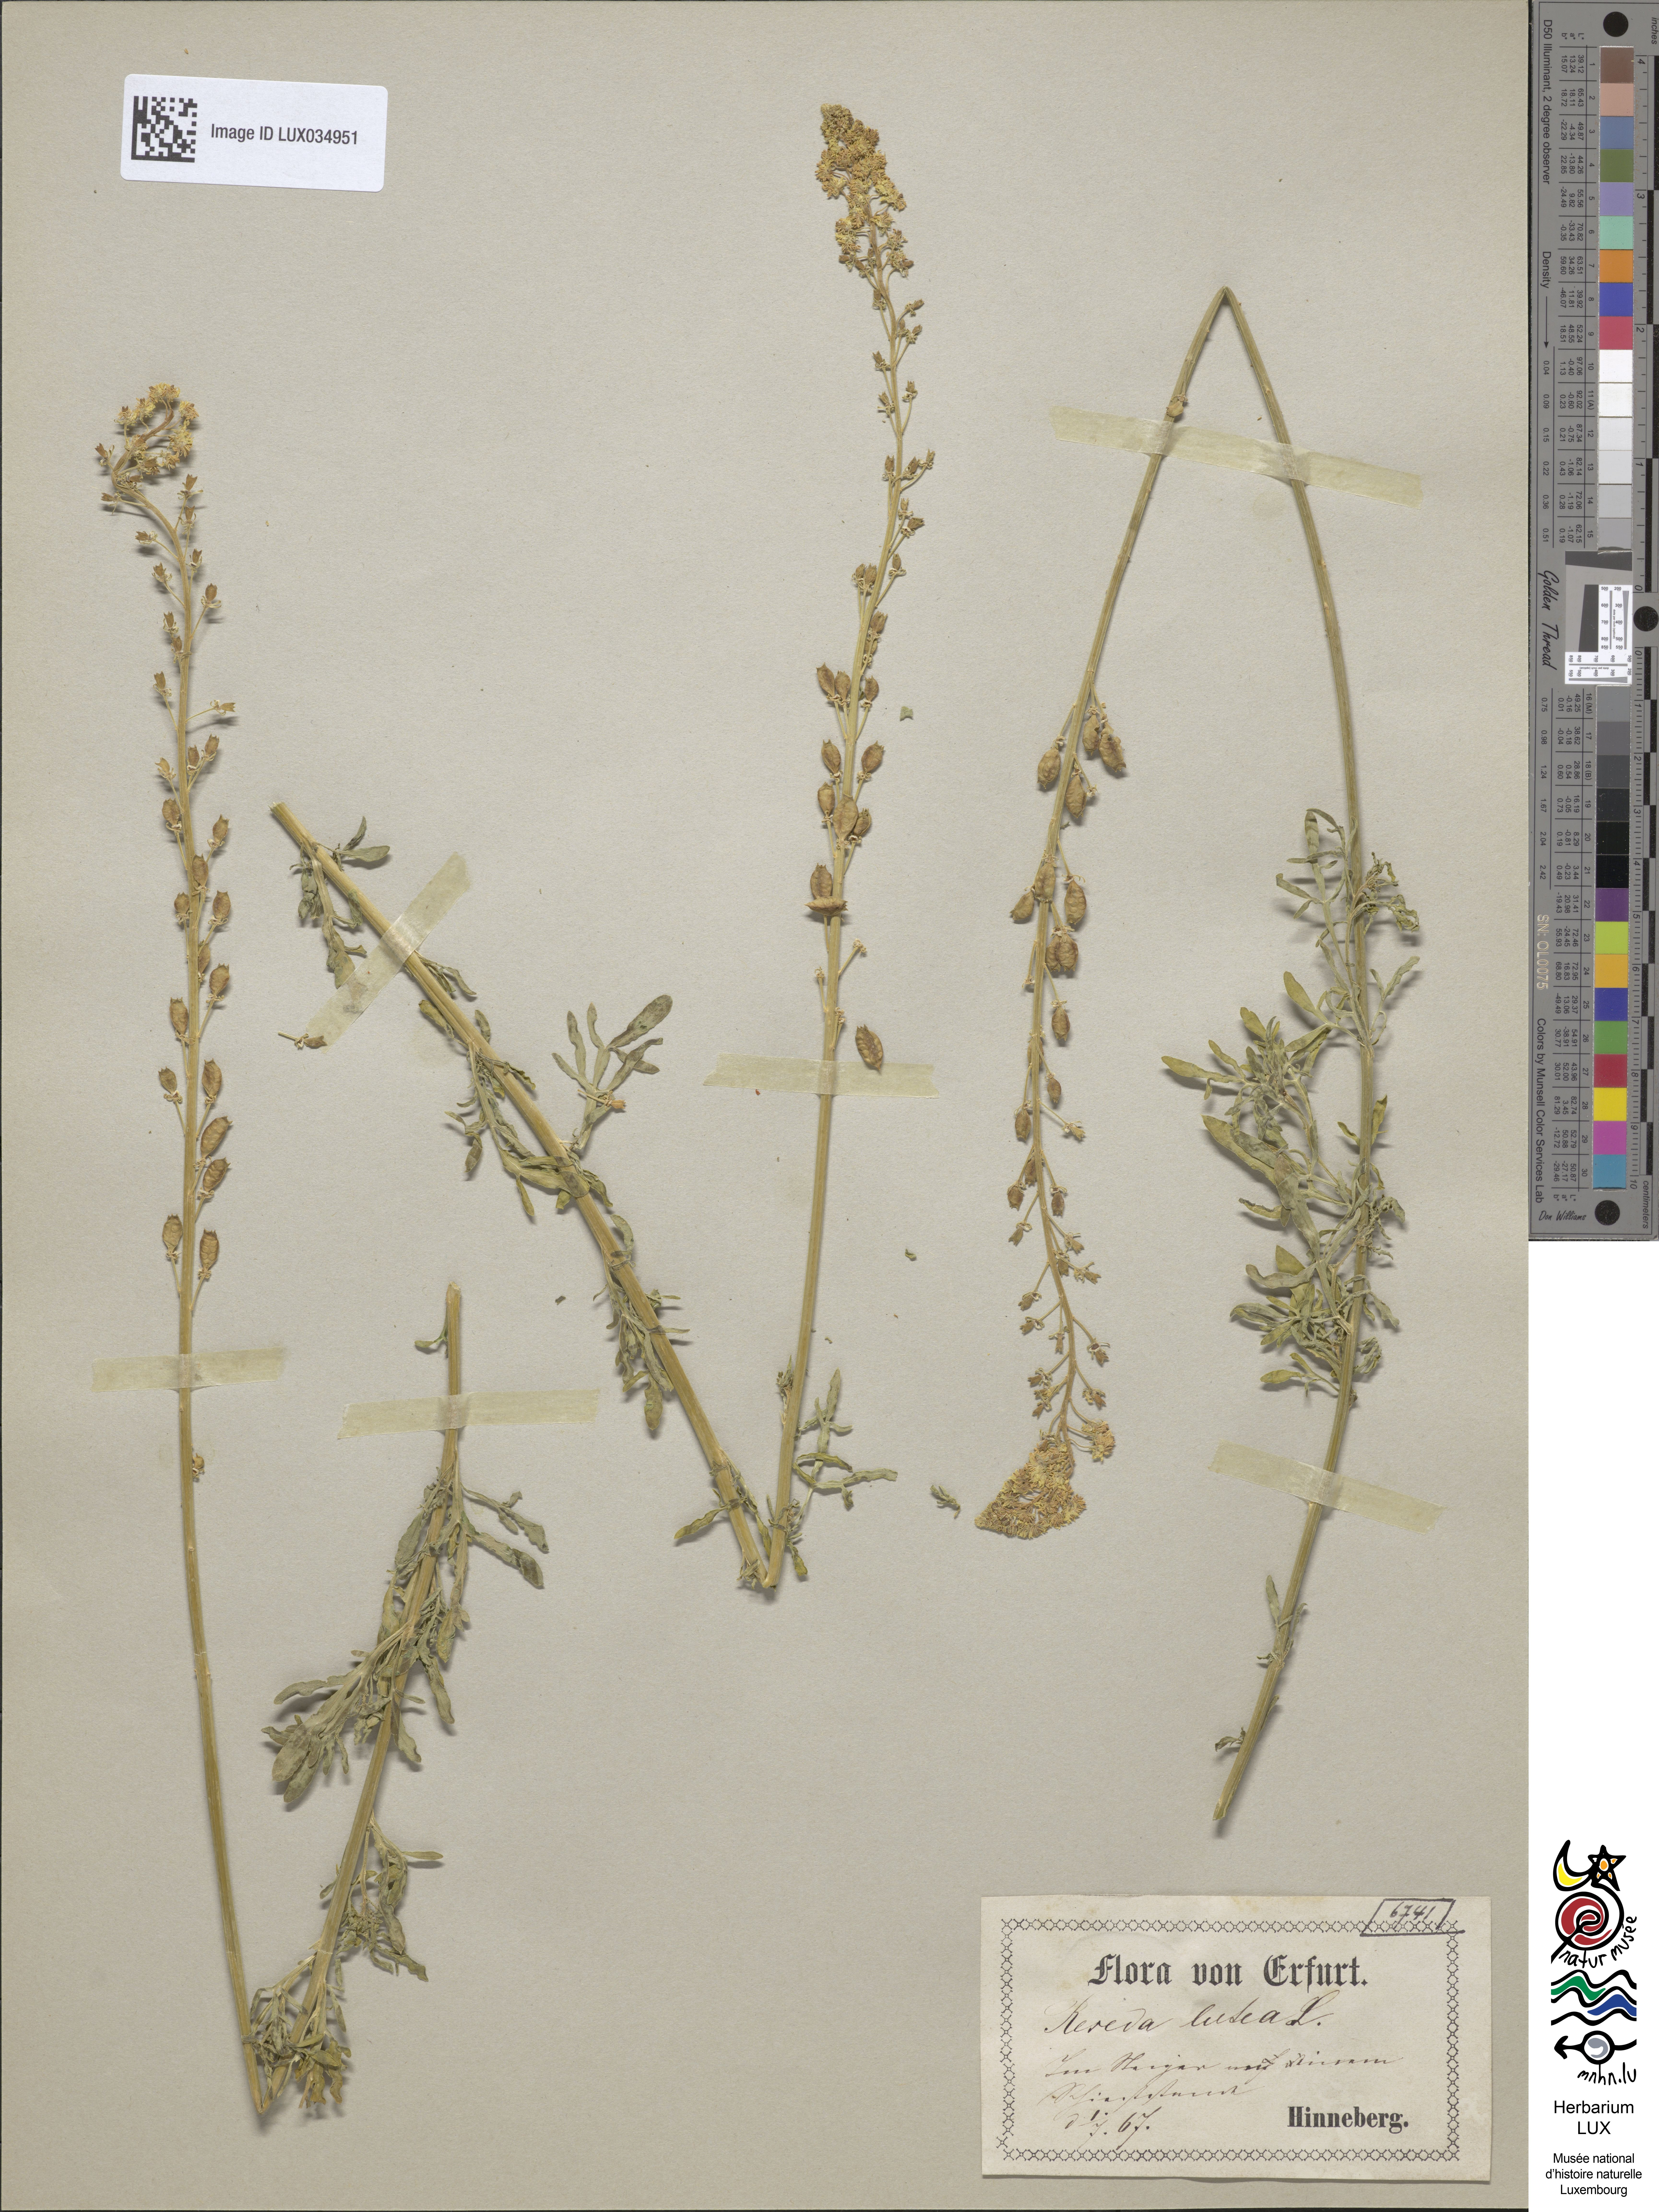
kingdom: Plantae
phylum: Tracheophyta
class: Magnoliopsida
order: Brassicales
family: Resedaceae
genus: Reseda
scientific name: Reseda lutea
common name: Wild mignonette
